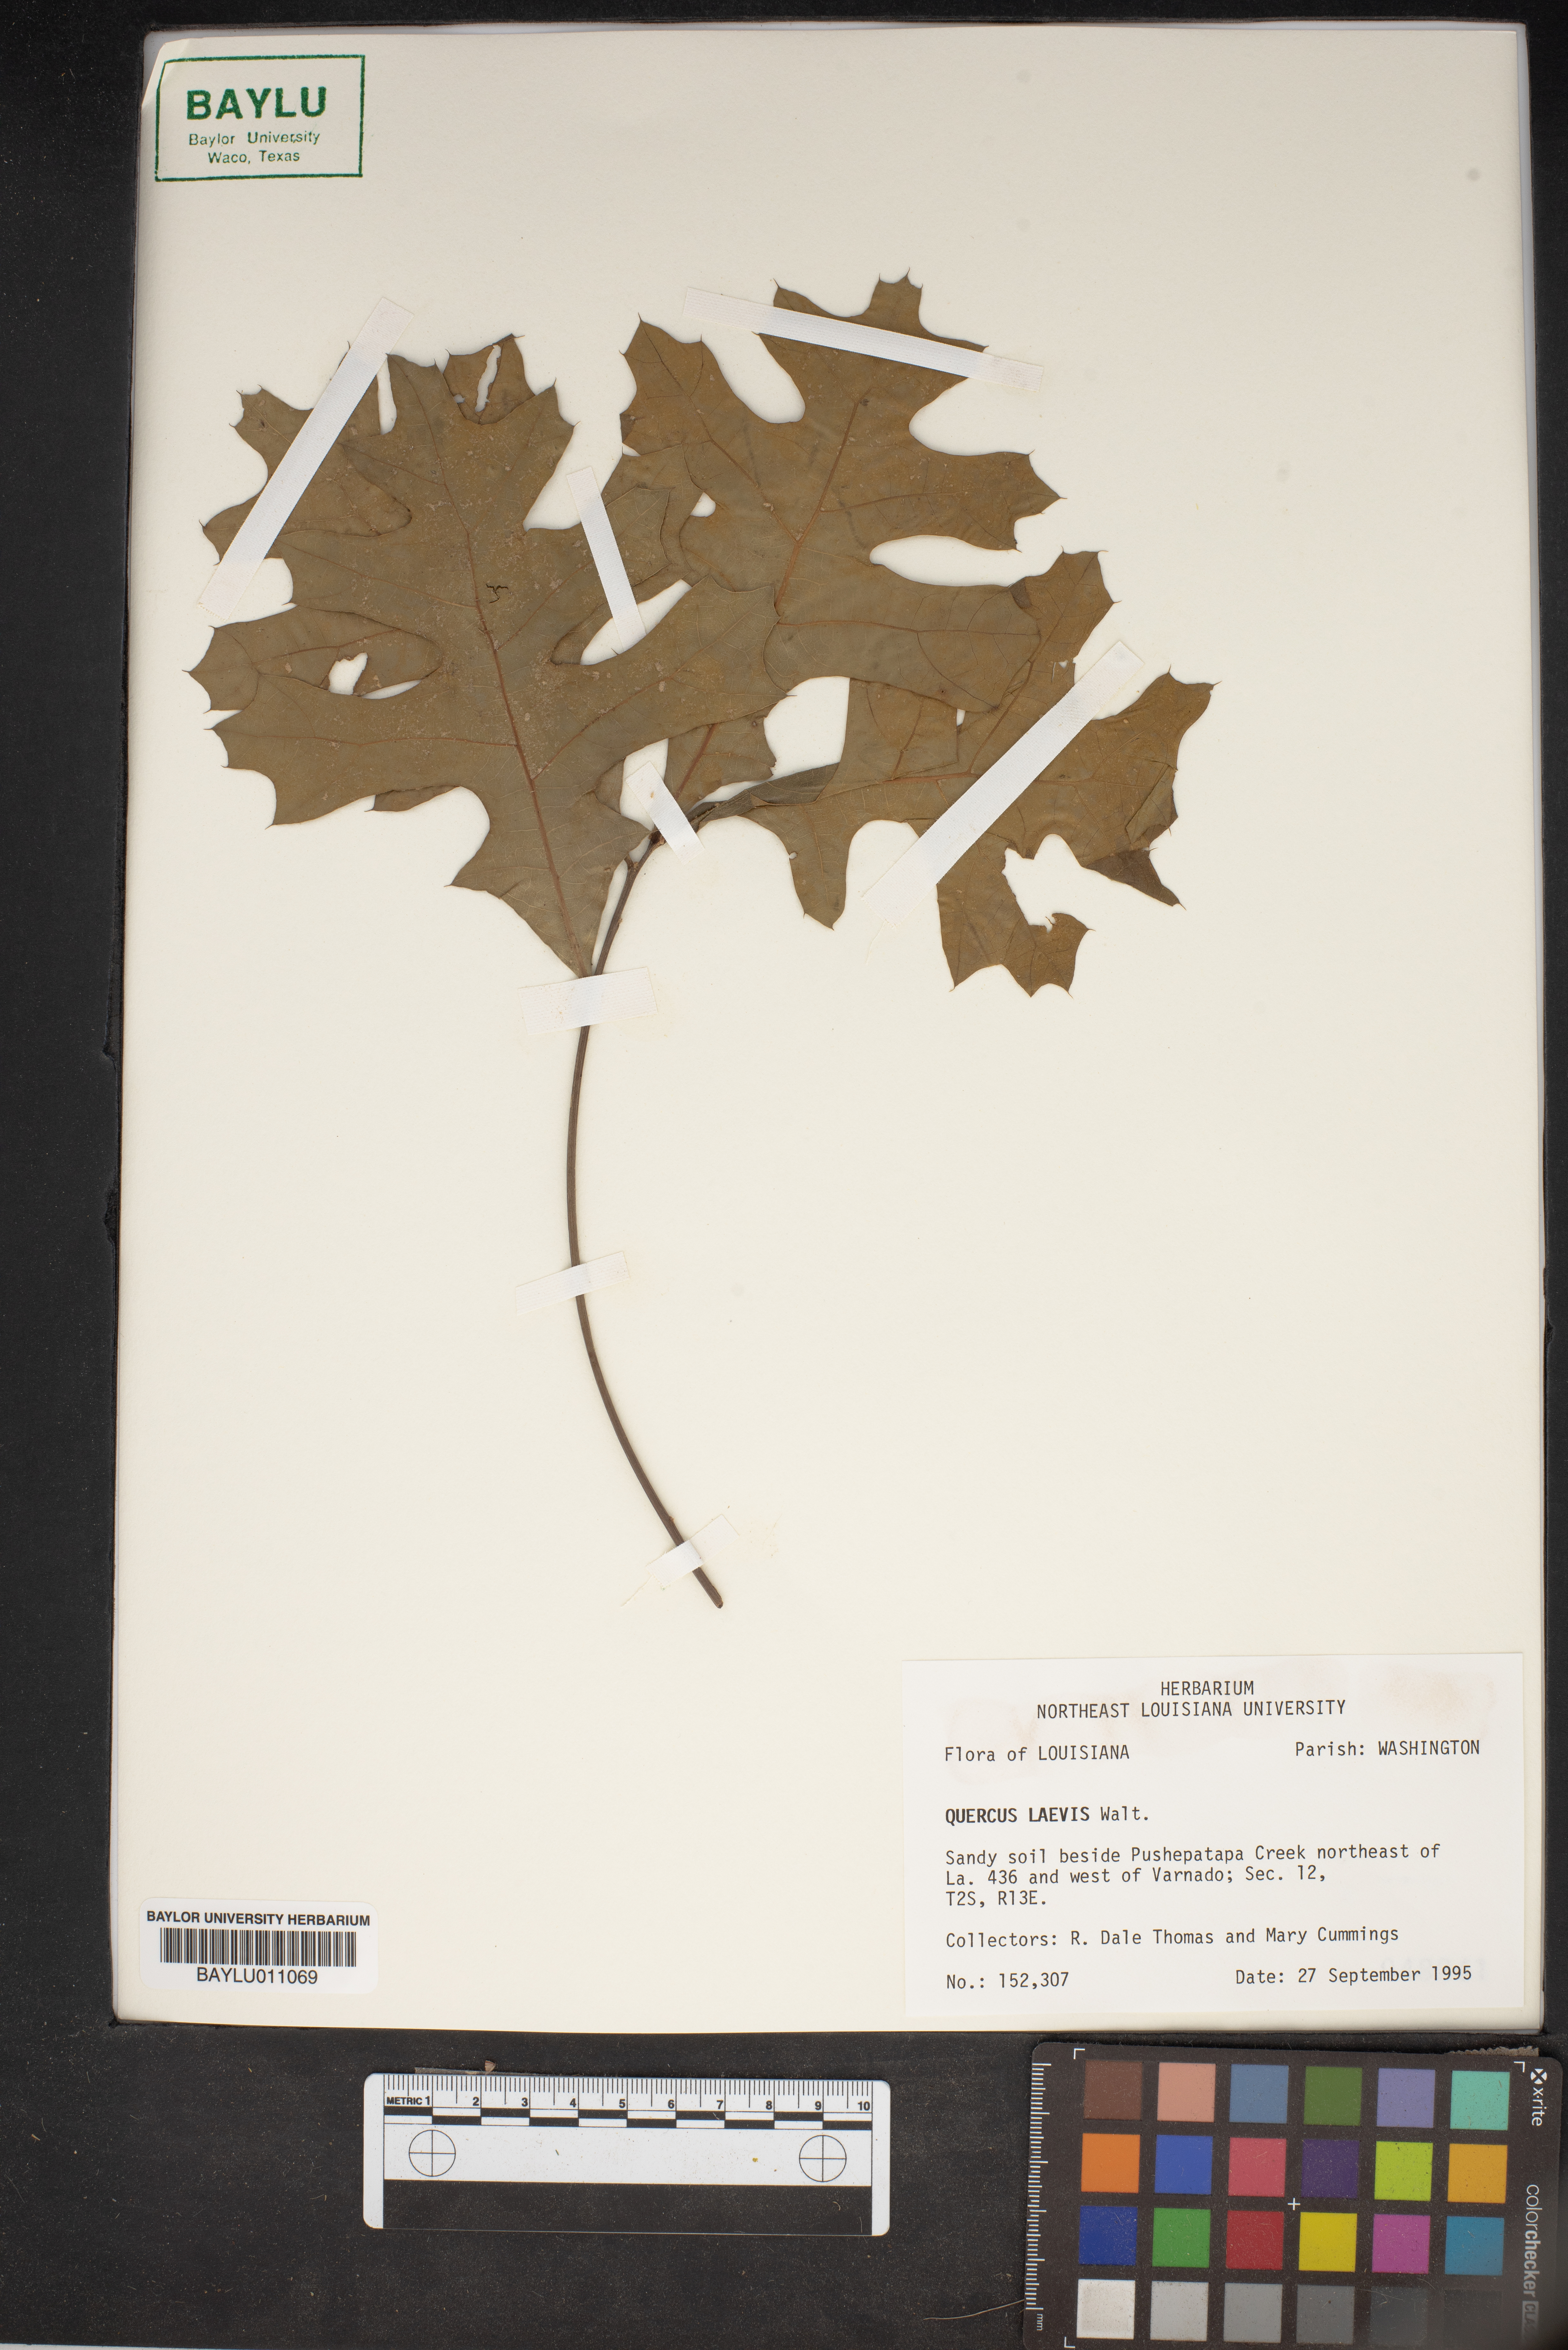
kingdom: Plantae
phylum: Tracheophyta
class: Magnoliopsida
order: Fagales
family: Fagaceae
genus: Quercus
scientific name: Quercus laevis
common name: Turkey oak
